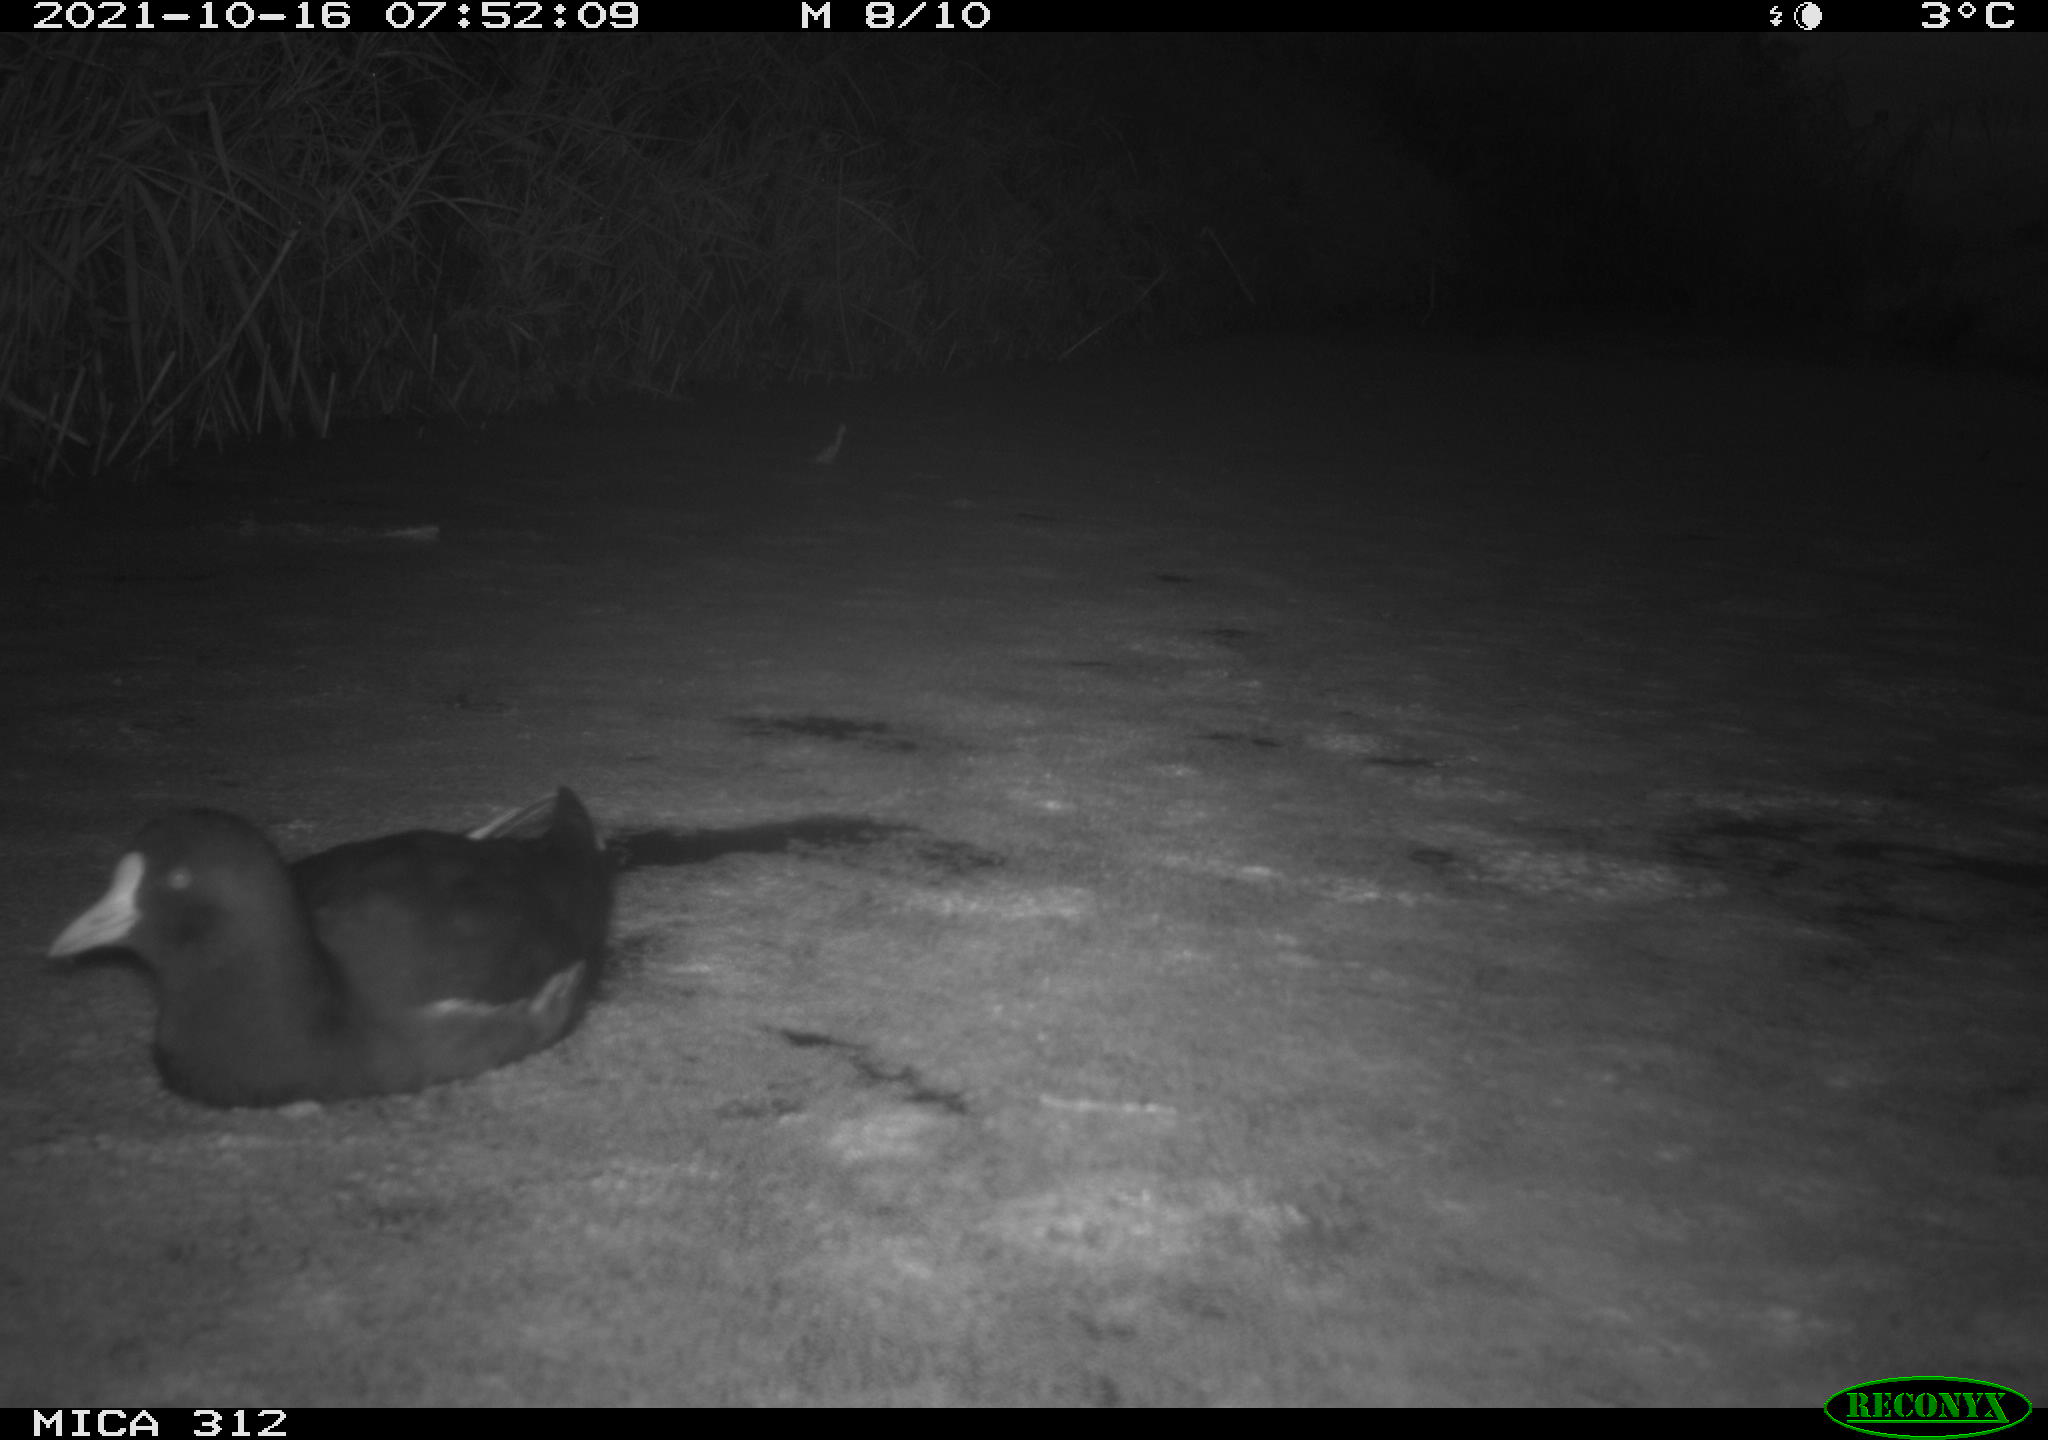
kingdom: Animalia
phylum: Chordata
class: Aves
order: Gruiformes
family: Rallidae
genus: Gallinula
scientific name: Gallinula chloropus
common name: Common moorhen
